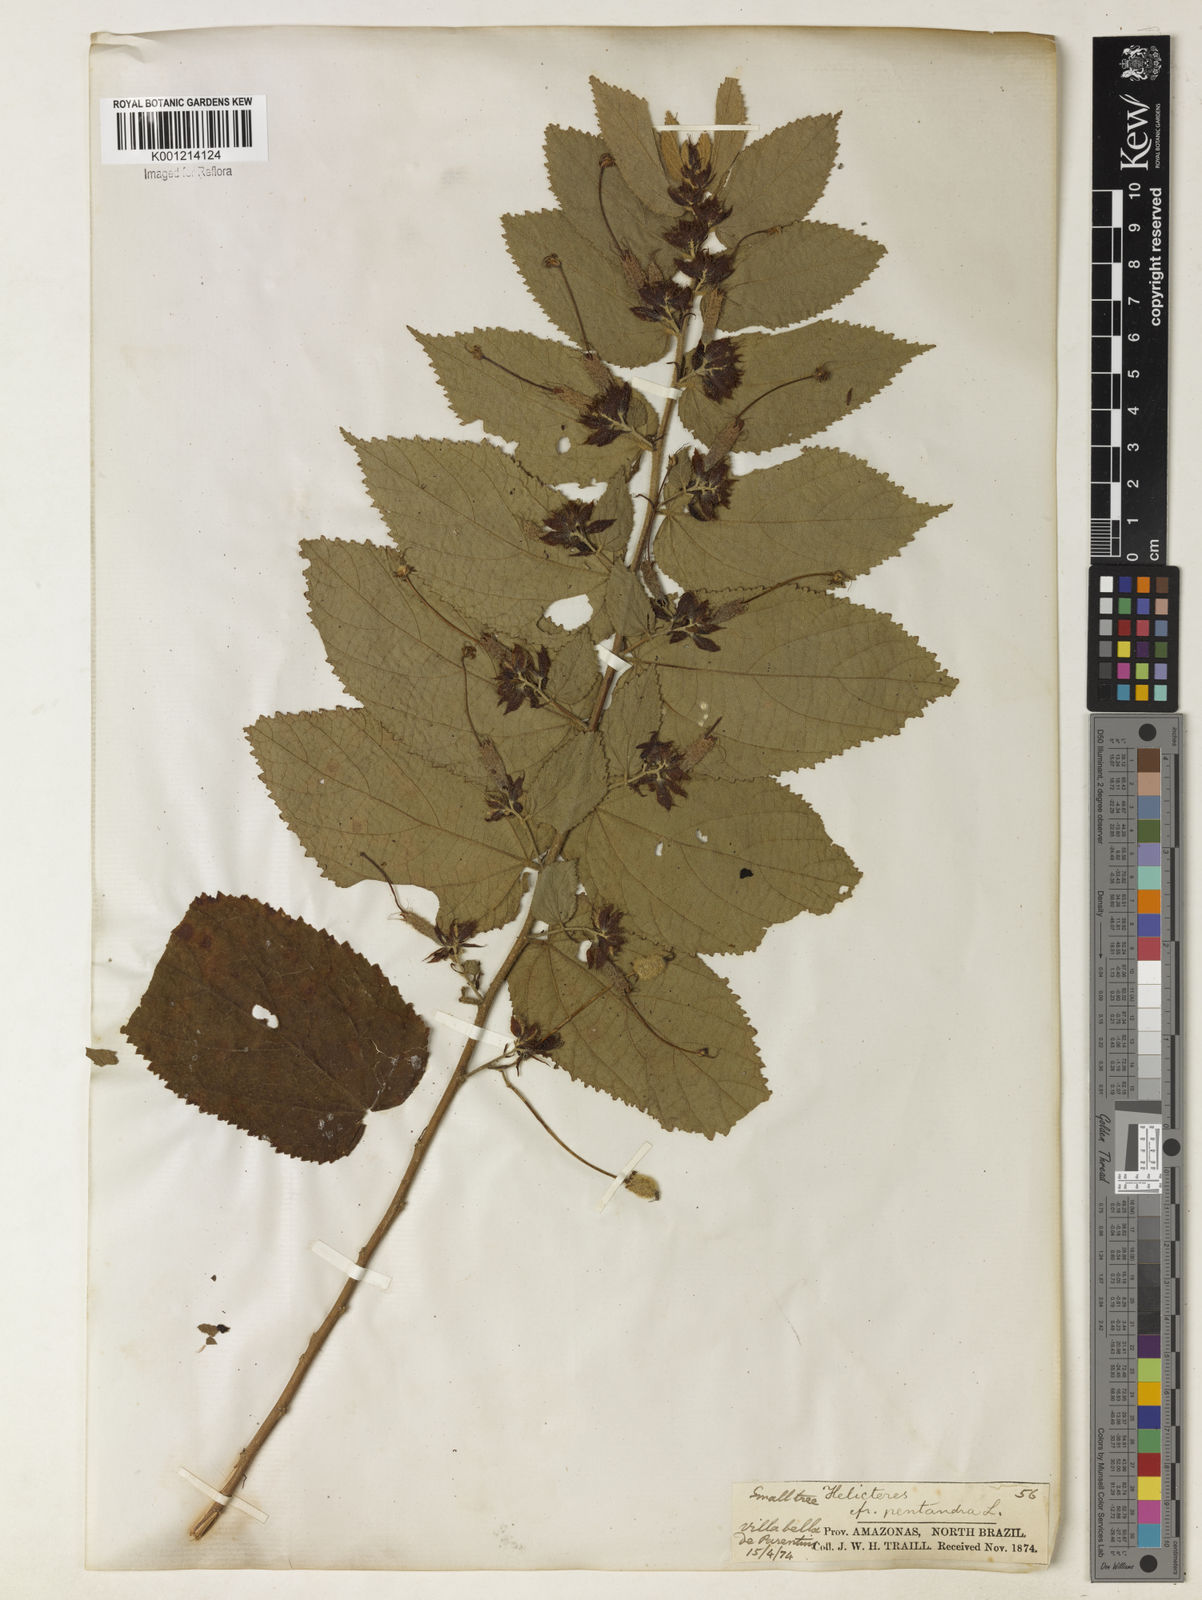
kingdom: Plantae
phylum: Tracheophyta
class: Magnoliopsida
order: Malvales
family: Malvaceae
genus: Helicteres
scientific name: Helicteres pentandra
